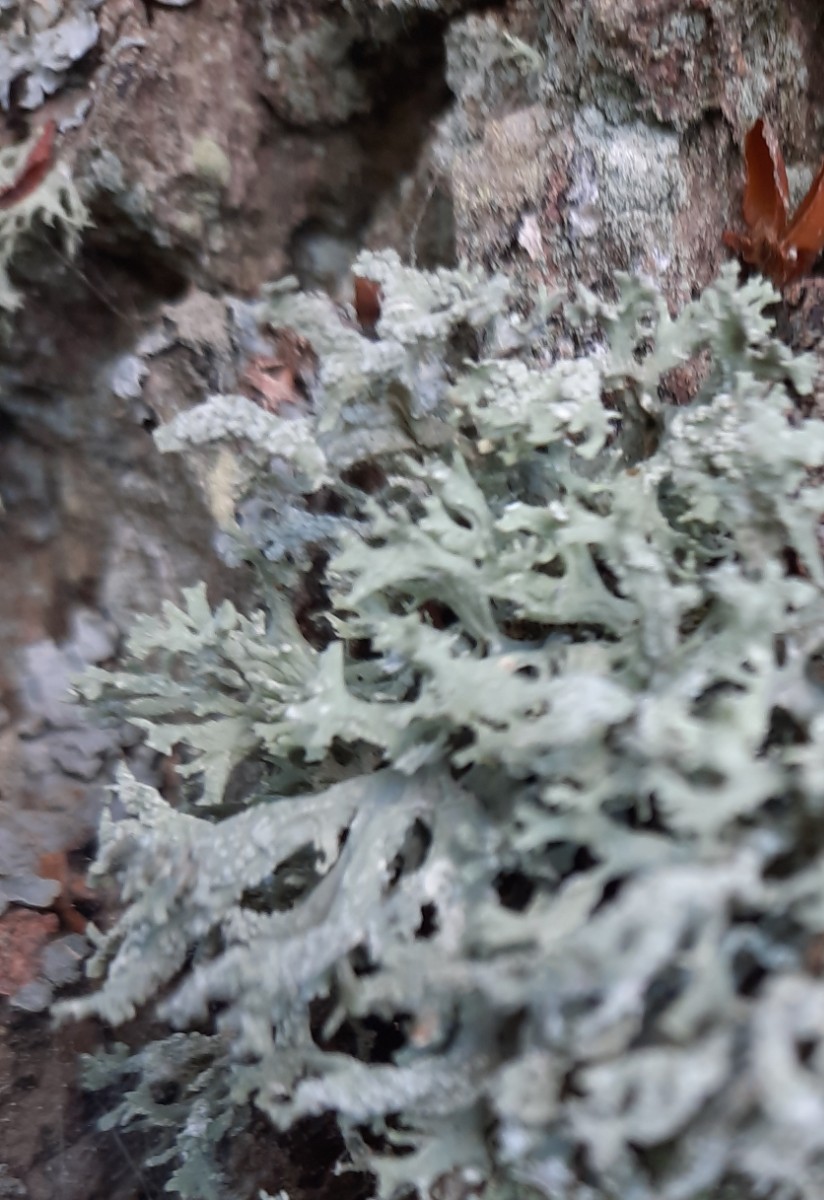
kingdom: Fungi
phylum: Ascomycota
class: Lecanoromycetes
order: Lecanorales
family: Parmeliaceae
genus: Evernia
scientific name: Evernia prunastri
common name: almindelig slåenlav
